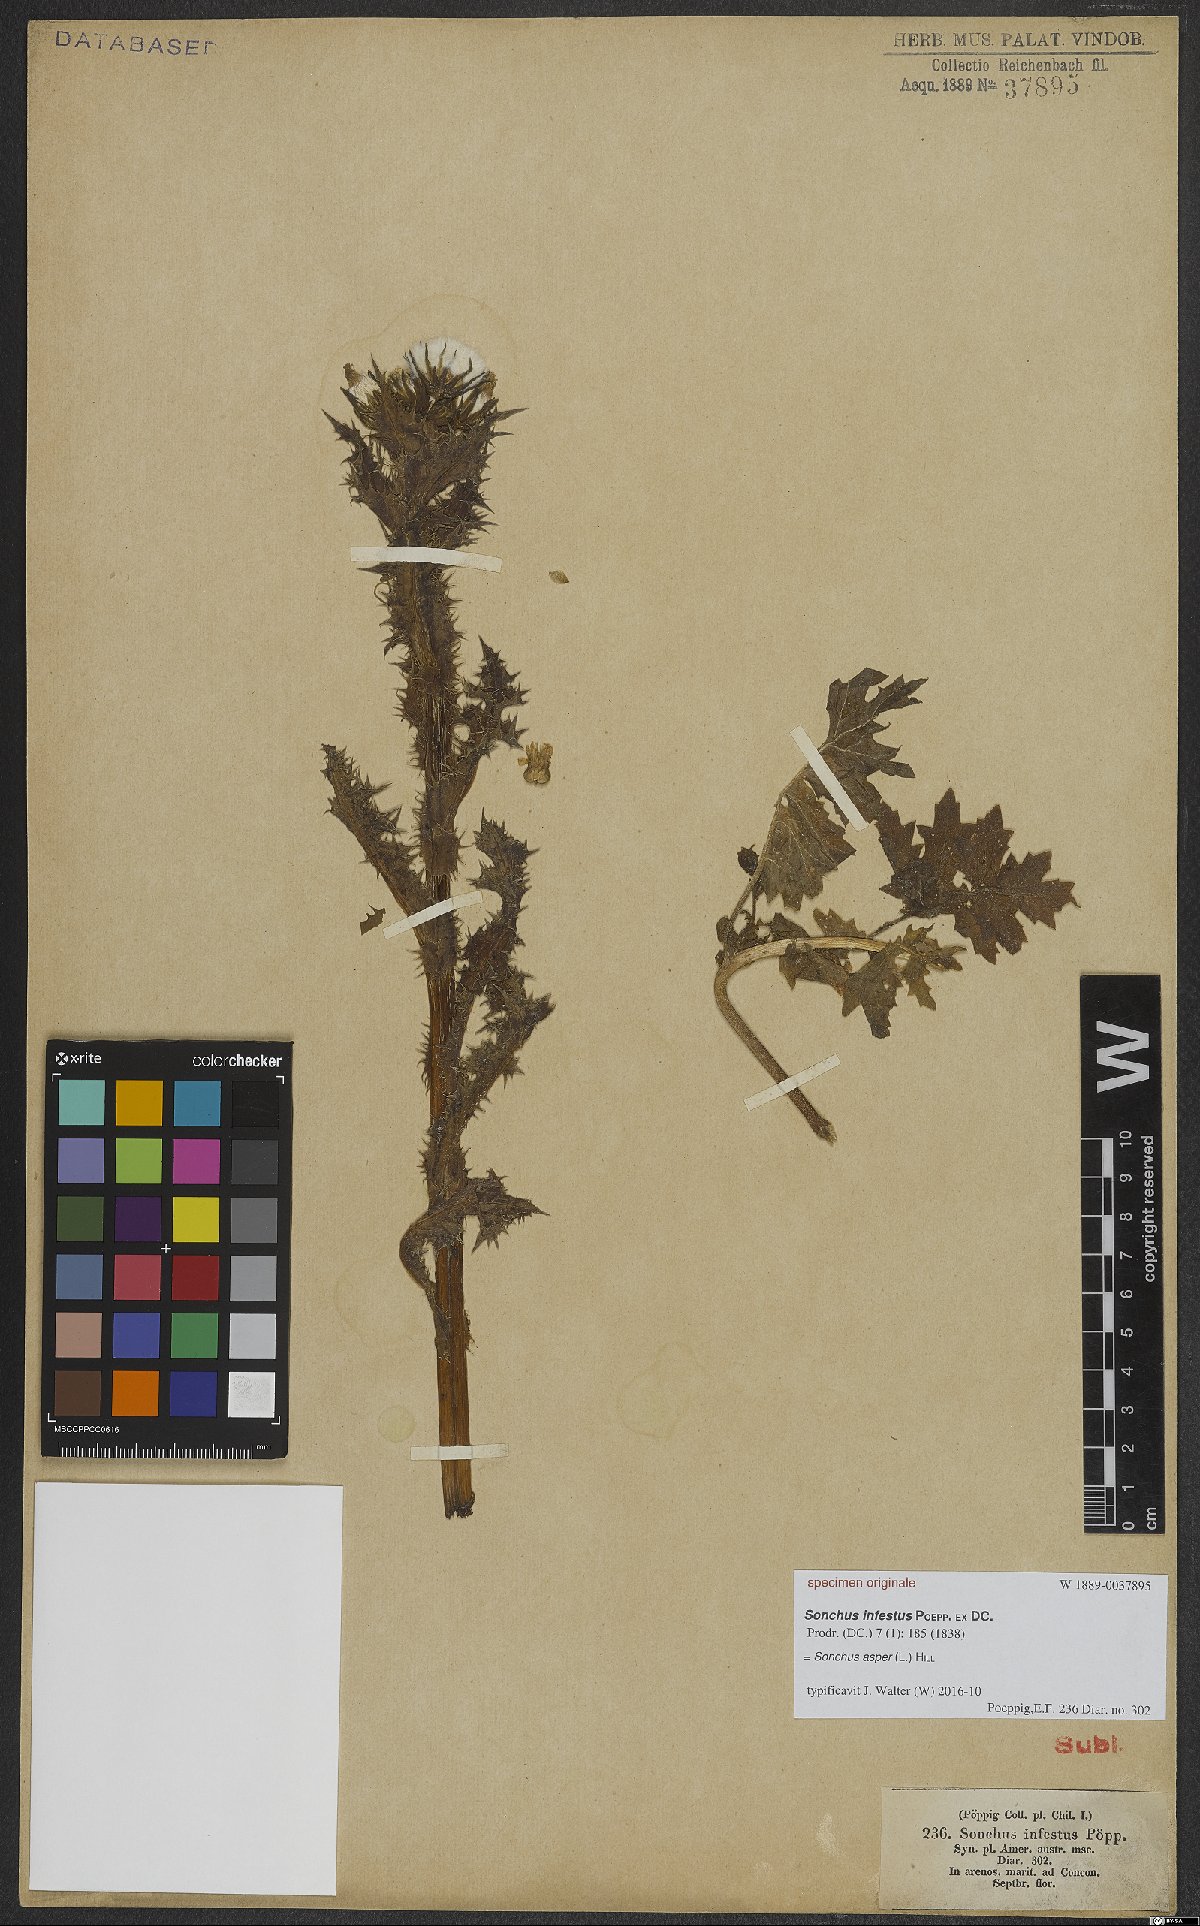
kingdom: Plantae
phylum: Tracheophyta
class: Magnoliopsida
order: Asterales
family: Asteraceae
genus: Sonchus
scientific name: Sonchus asper
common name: Prickly sow-thistle
